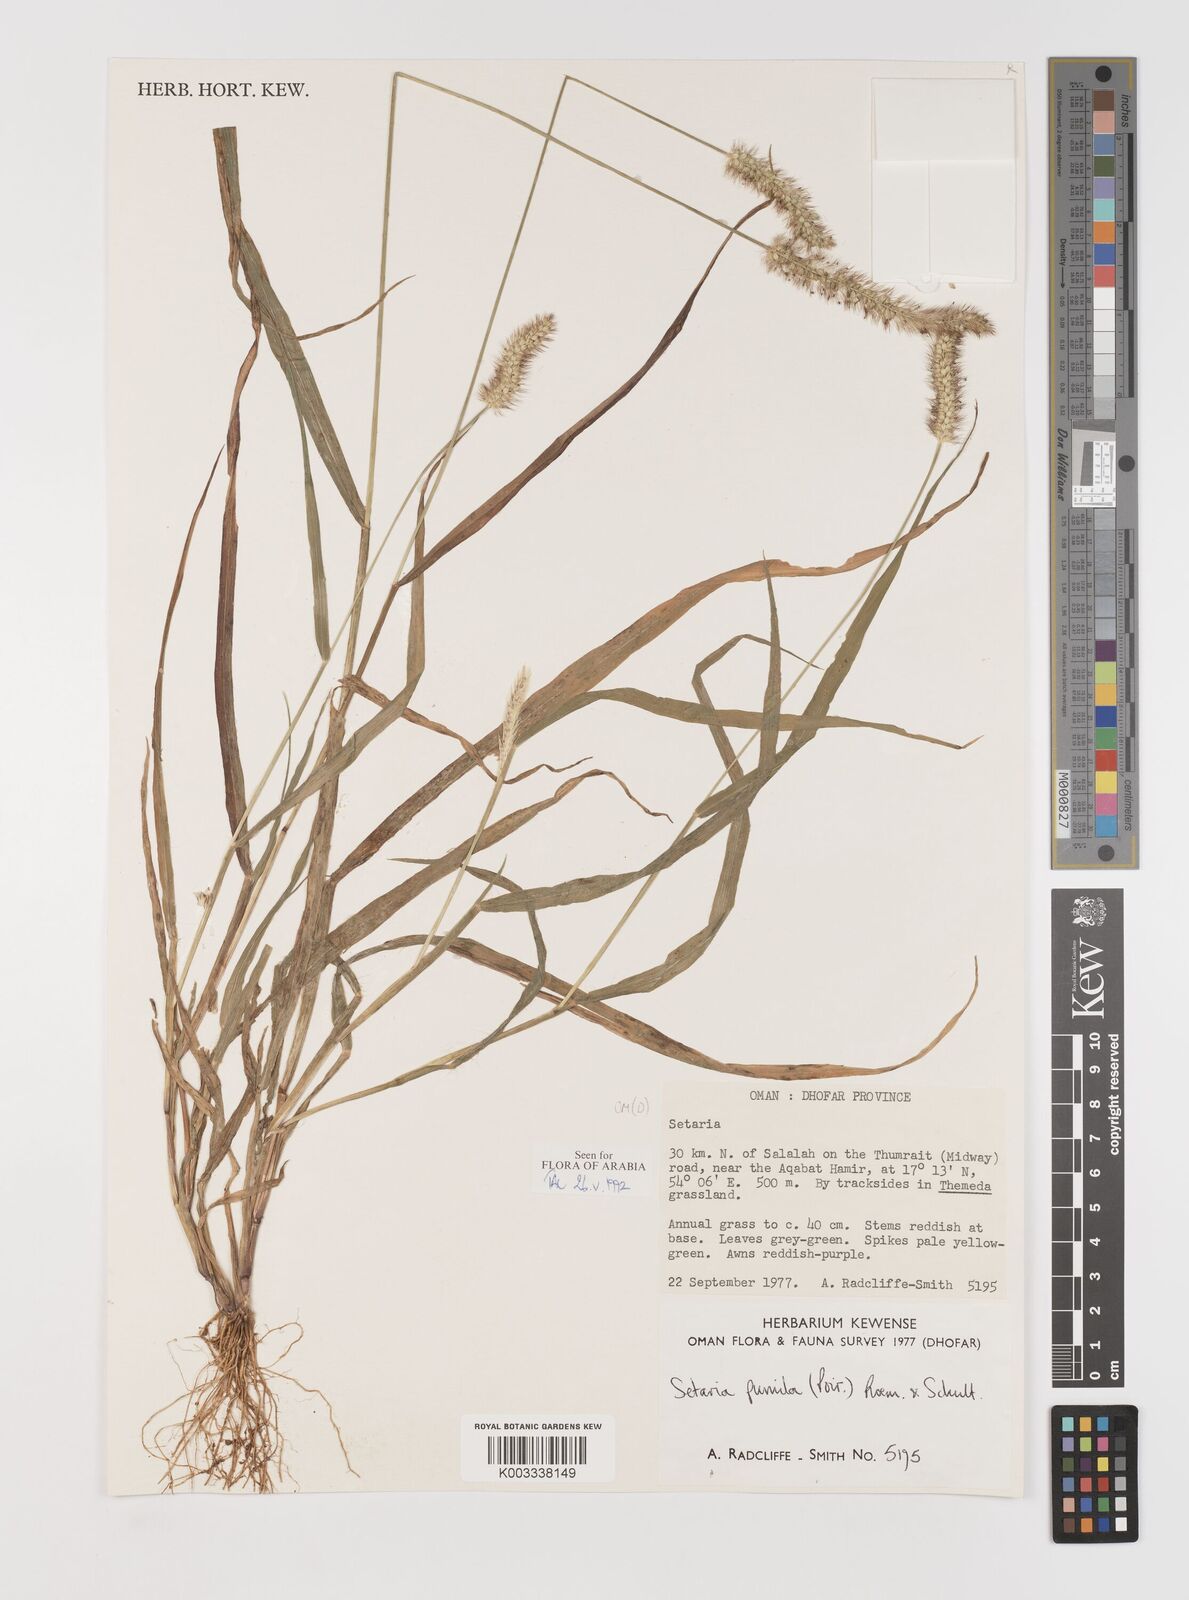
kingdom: Plantae
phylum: Tracheophyta
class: Liliopsida
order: Poales
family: Poaceae
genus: Setaria
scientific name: Setaria pumila
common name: Yellow bristle-grass
